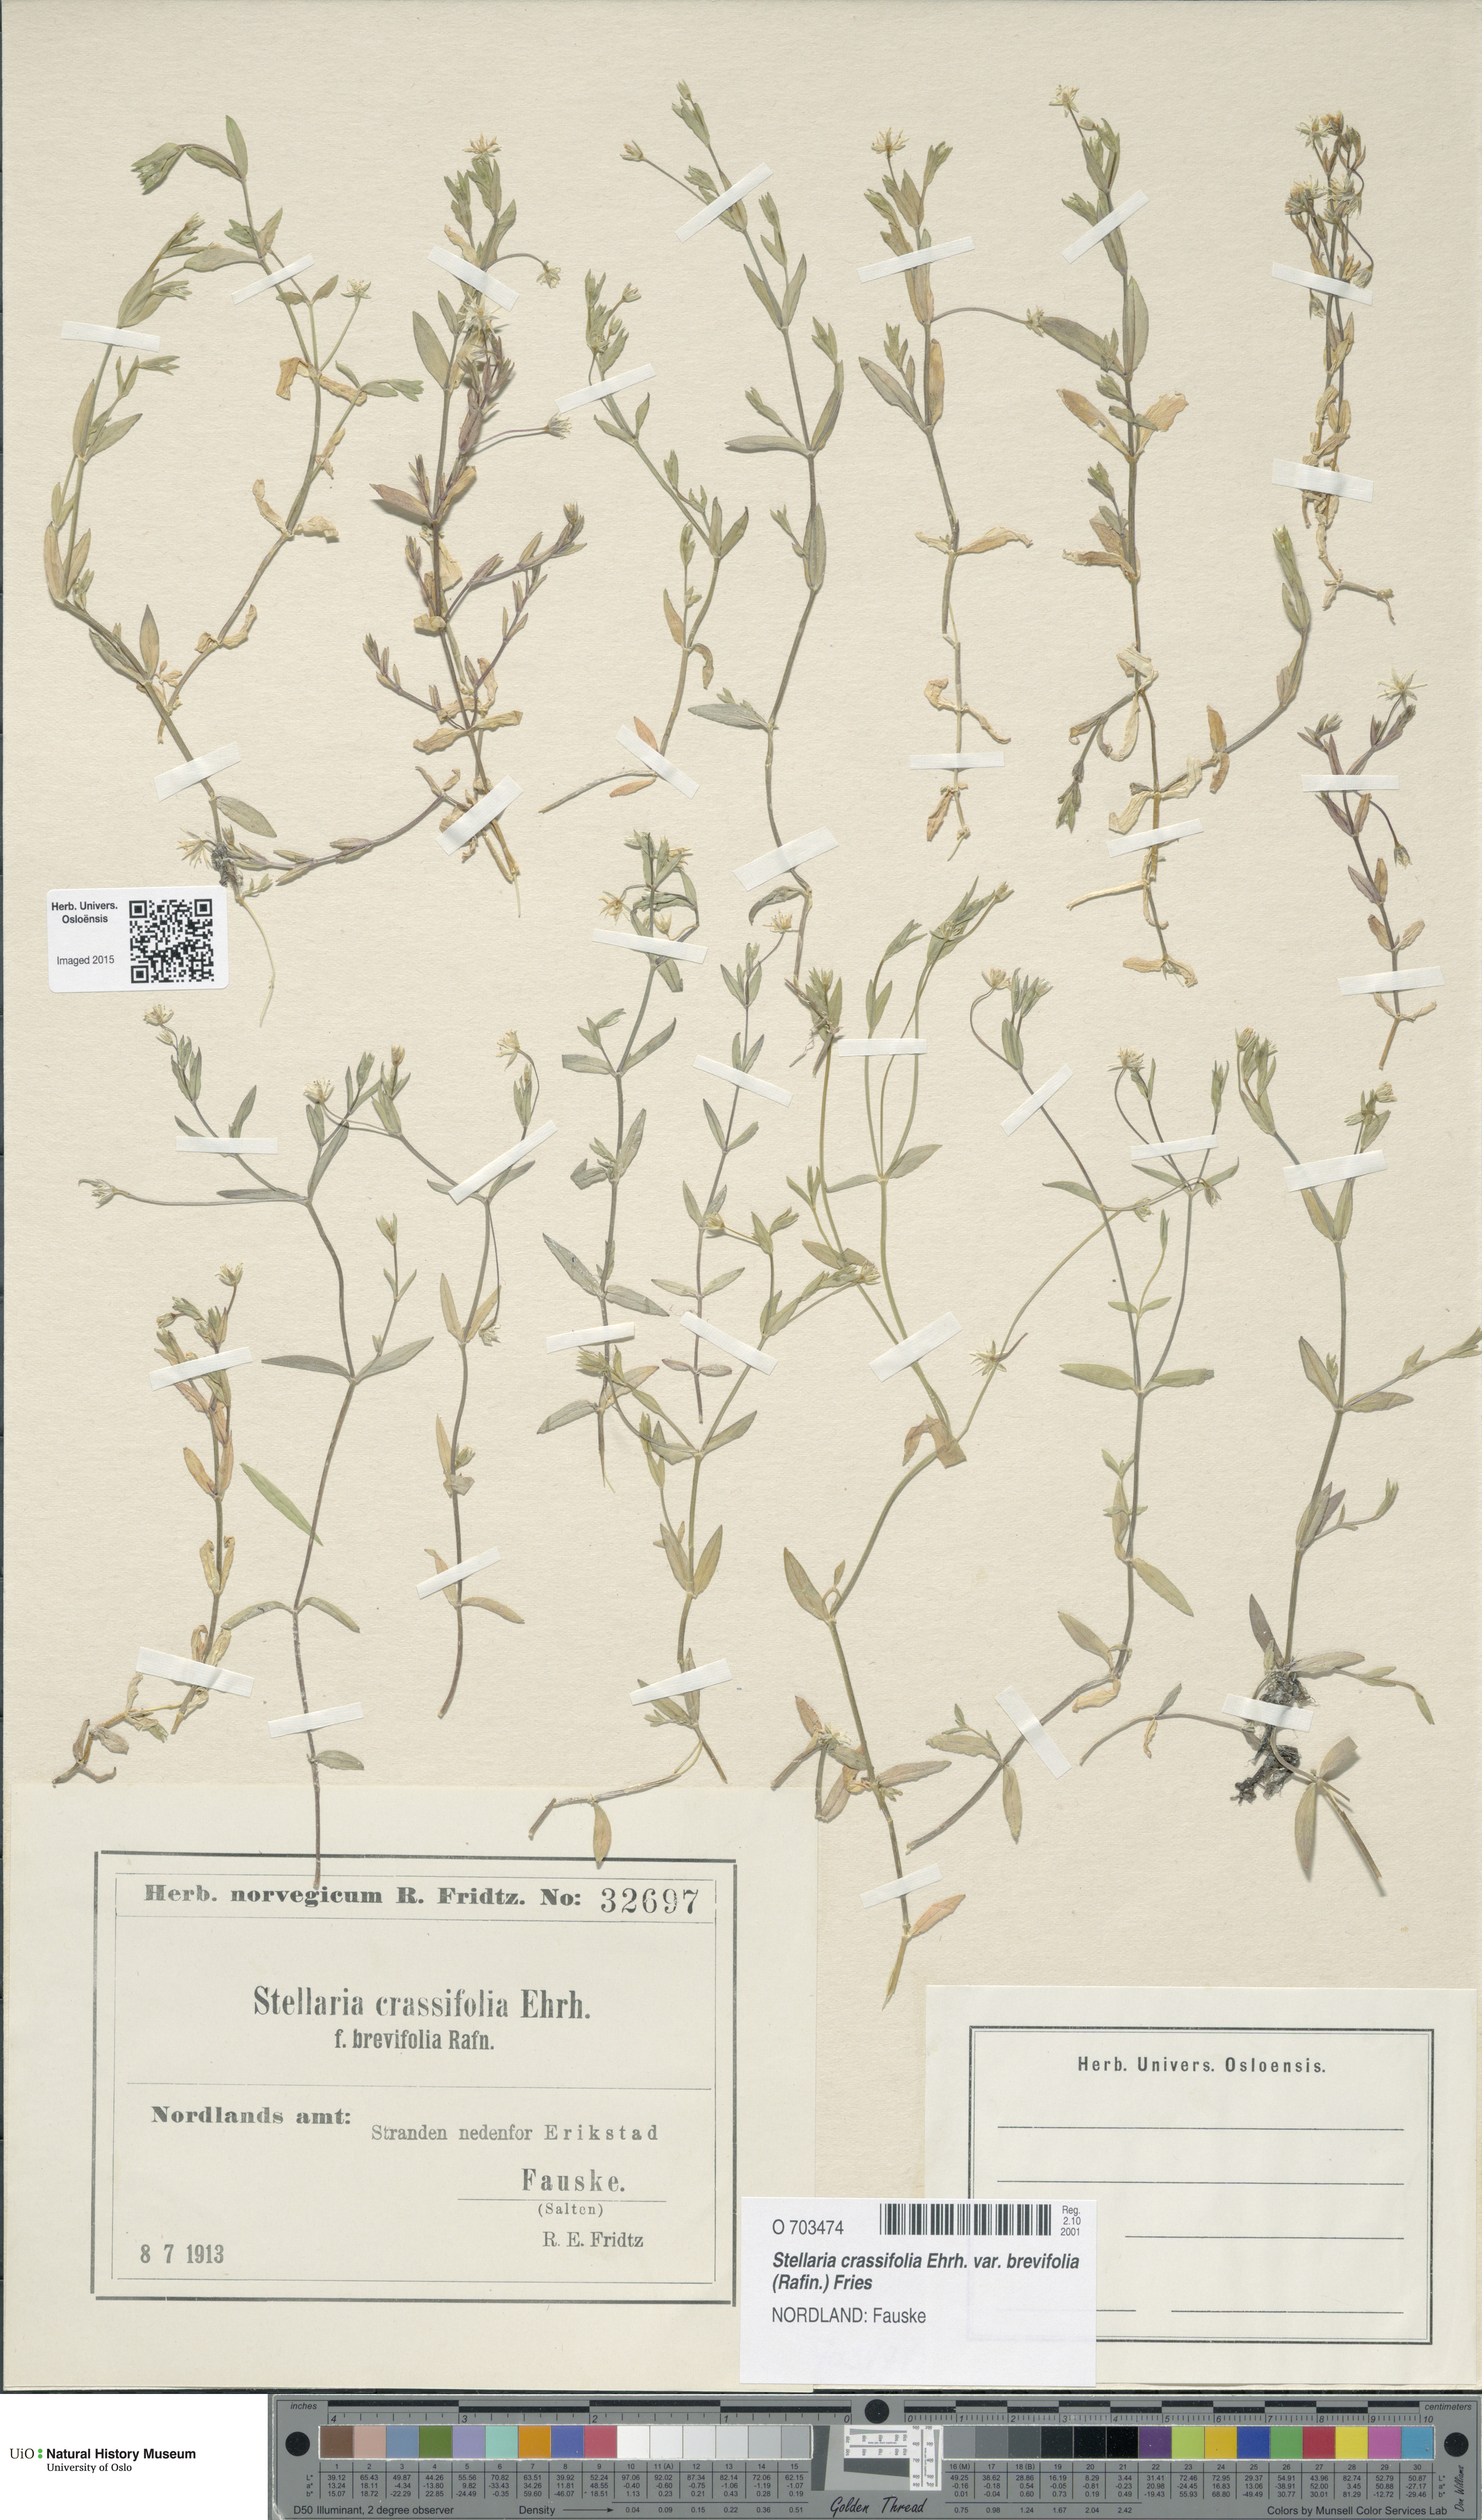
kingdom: Plantae
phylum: Tracheophyta
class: Magnoliopsida
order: Caryophyllales
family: Caryophyllaceae
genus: Stellaria
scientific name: Stellaria crassifolia
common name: Fleshy starwort
